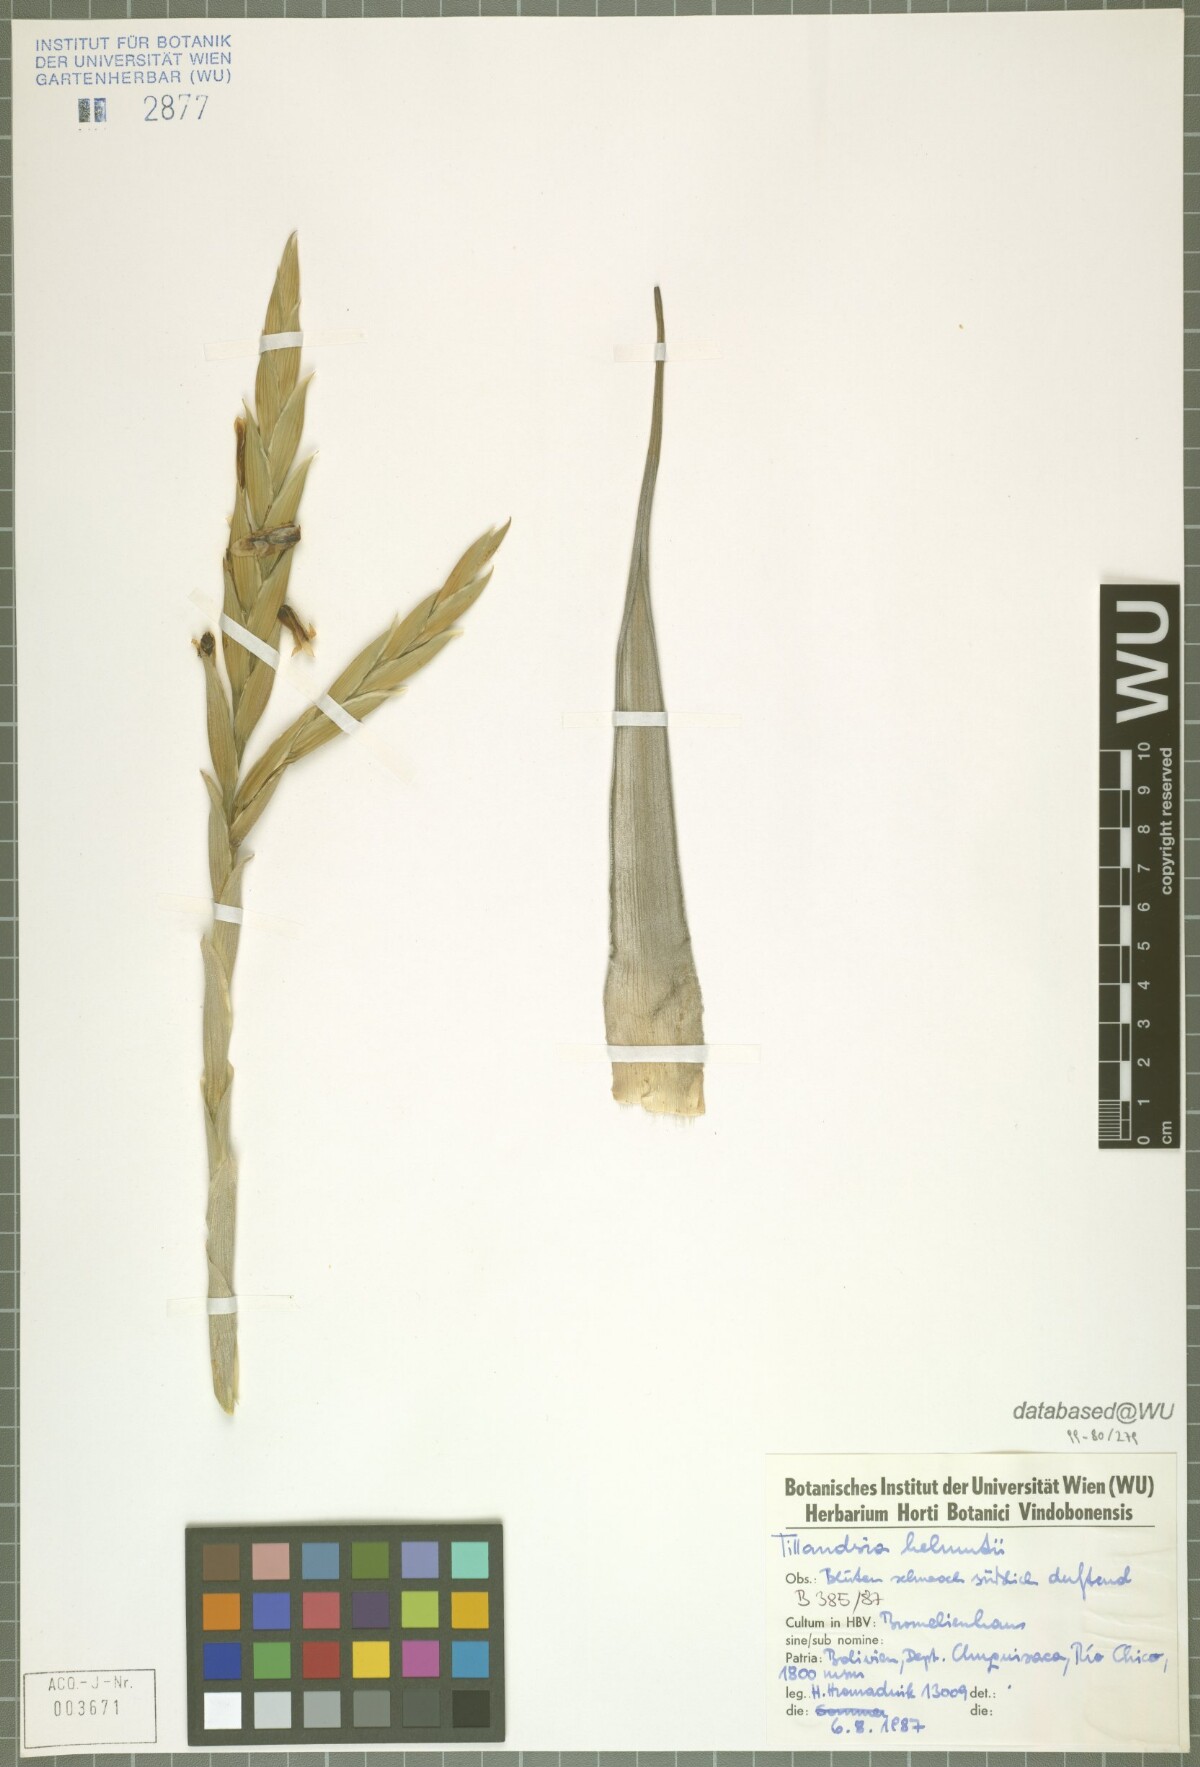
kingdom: Plantae
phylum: Tracheophyta
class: Liliopsida
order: Poales
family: Bromeliaceae
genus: Tillandsia
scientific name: Tillandsia helmutii
